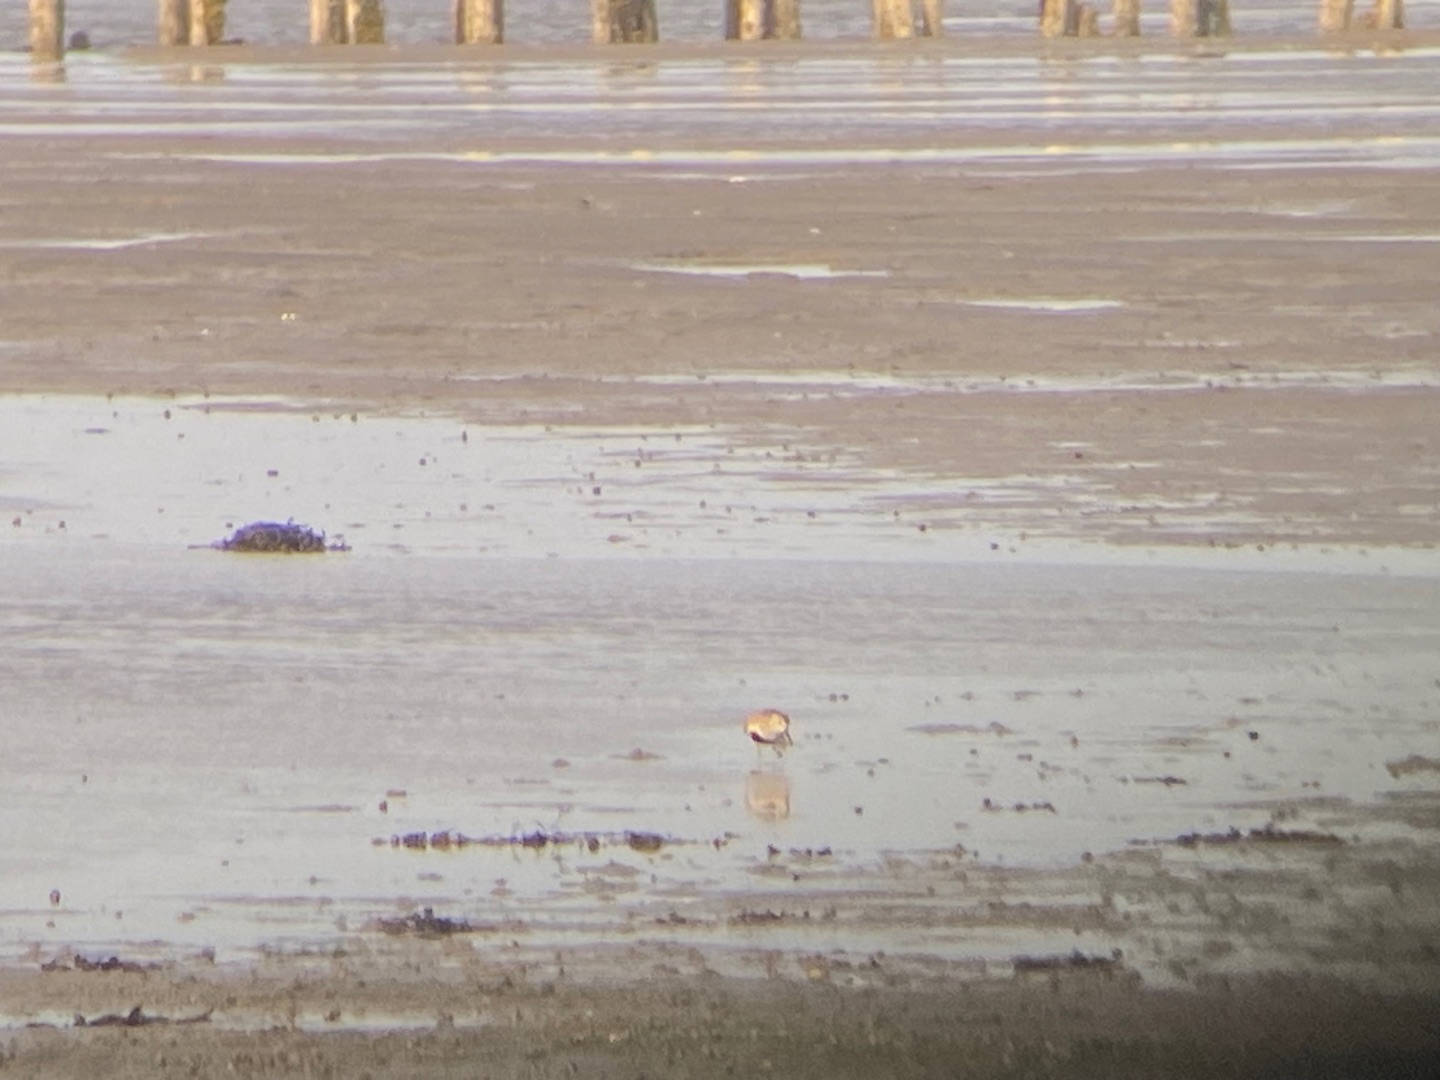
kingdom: Animalia
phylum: Chordata
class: Aves
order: Charadriiformes
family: Scolopacidae
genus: Calidris
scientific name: Calidris alpina
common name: Almindelig ryle
